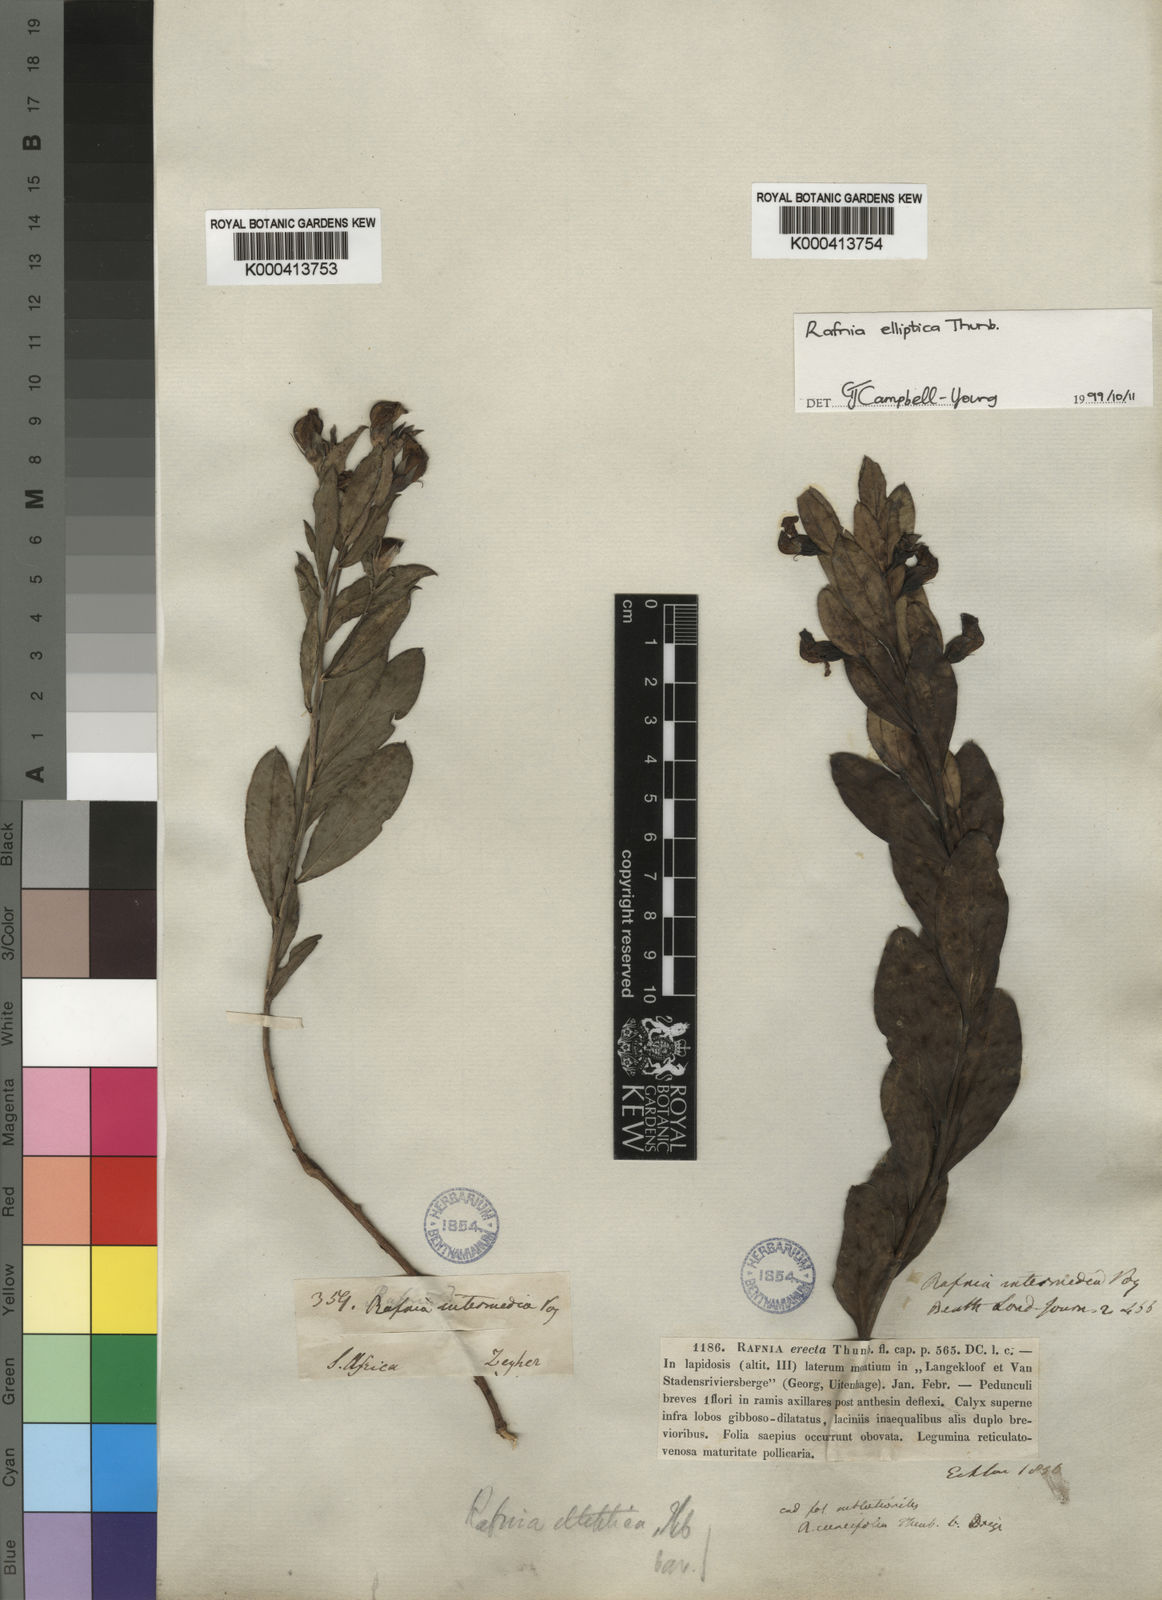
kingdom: Plantae
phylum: Tracheophyta
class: Magnoliopsida
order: Fabales
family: Fabaceae
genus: Rafnia
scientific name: Rafnia elliptica
